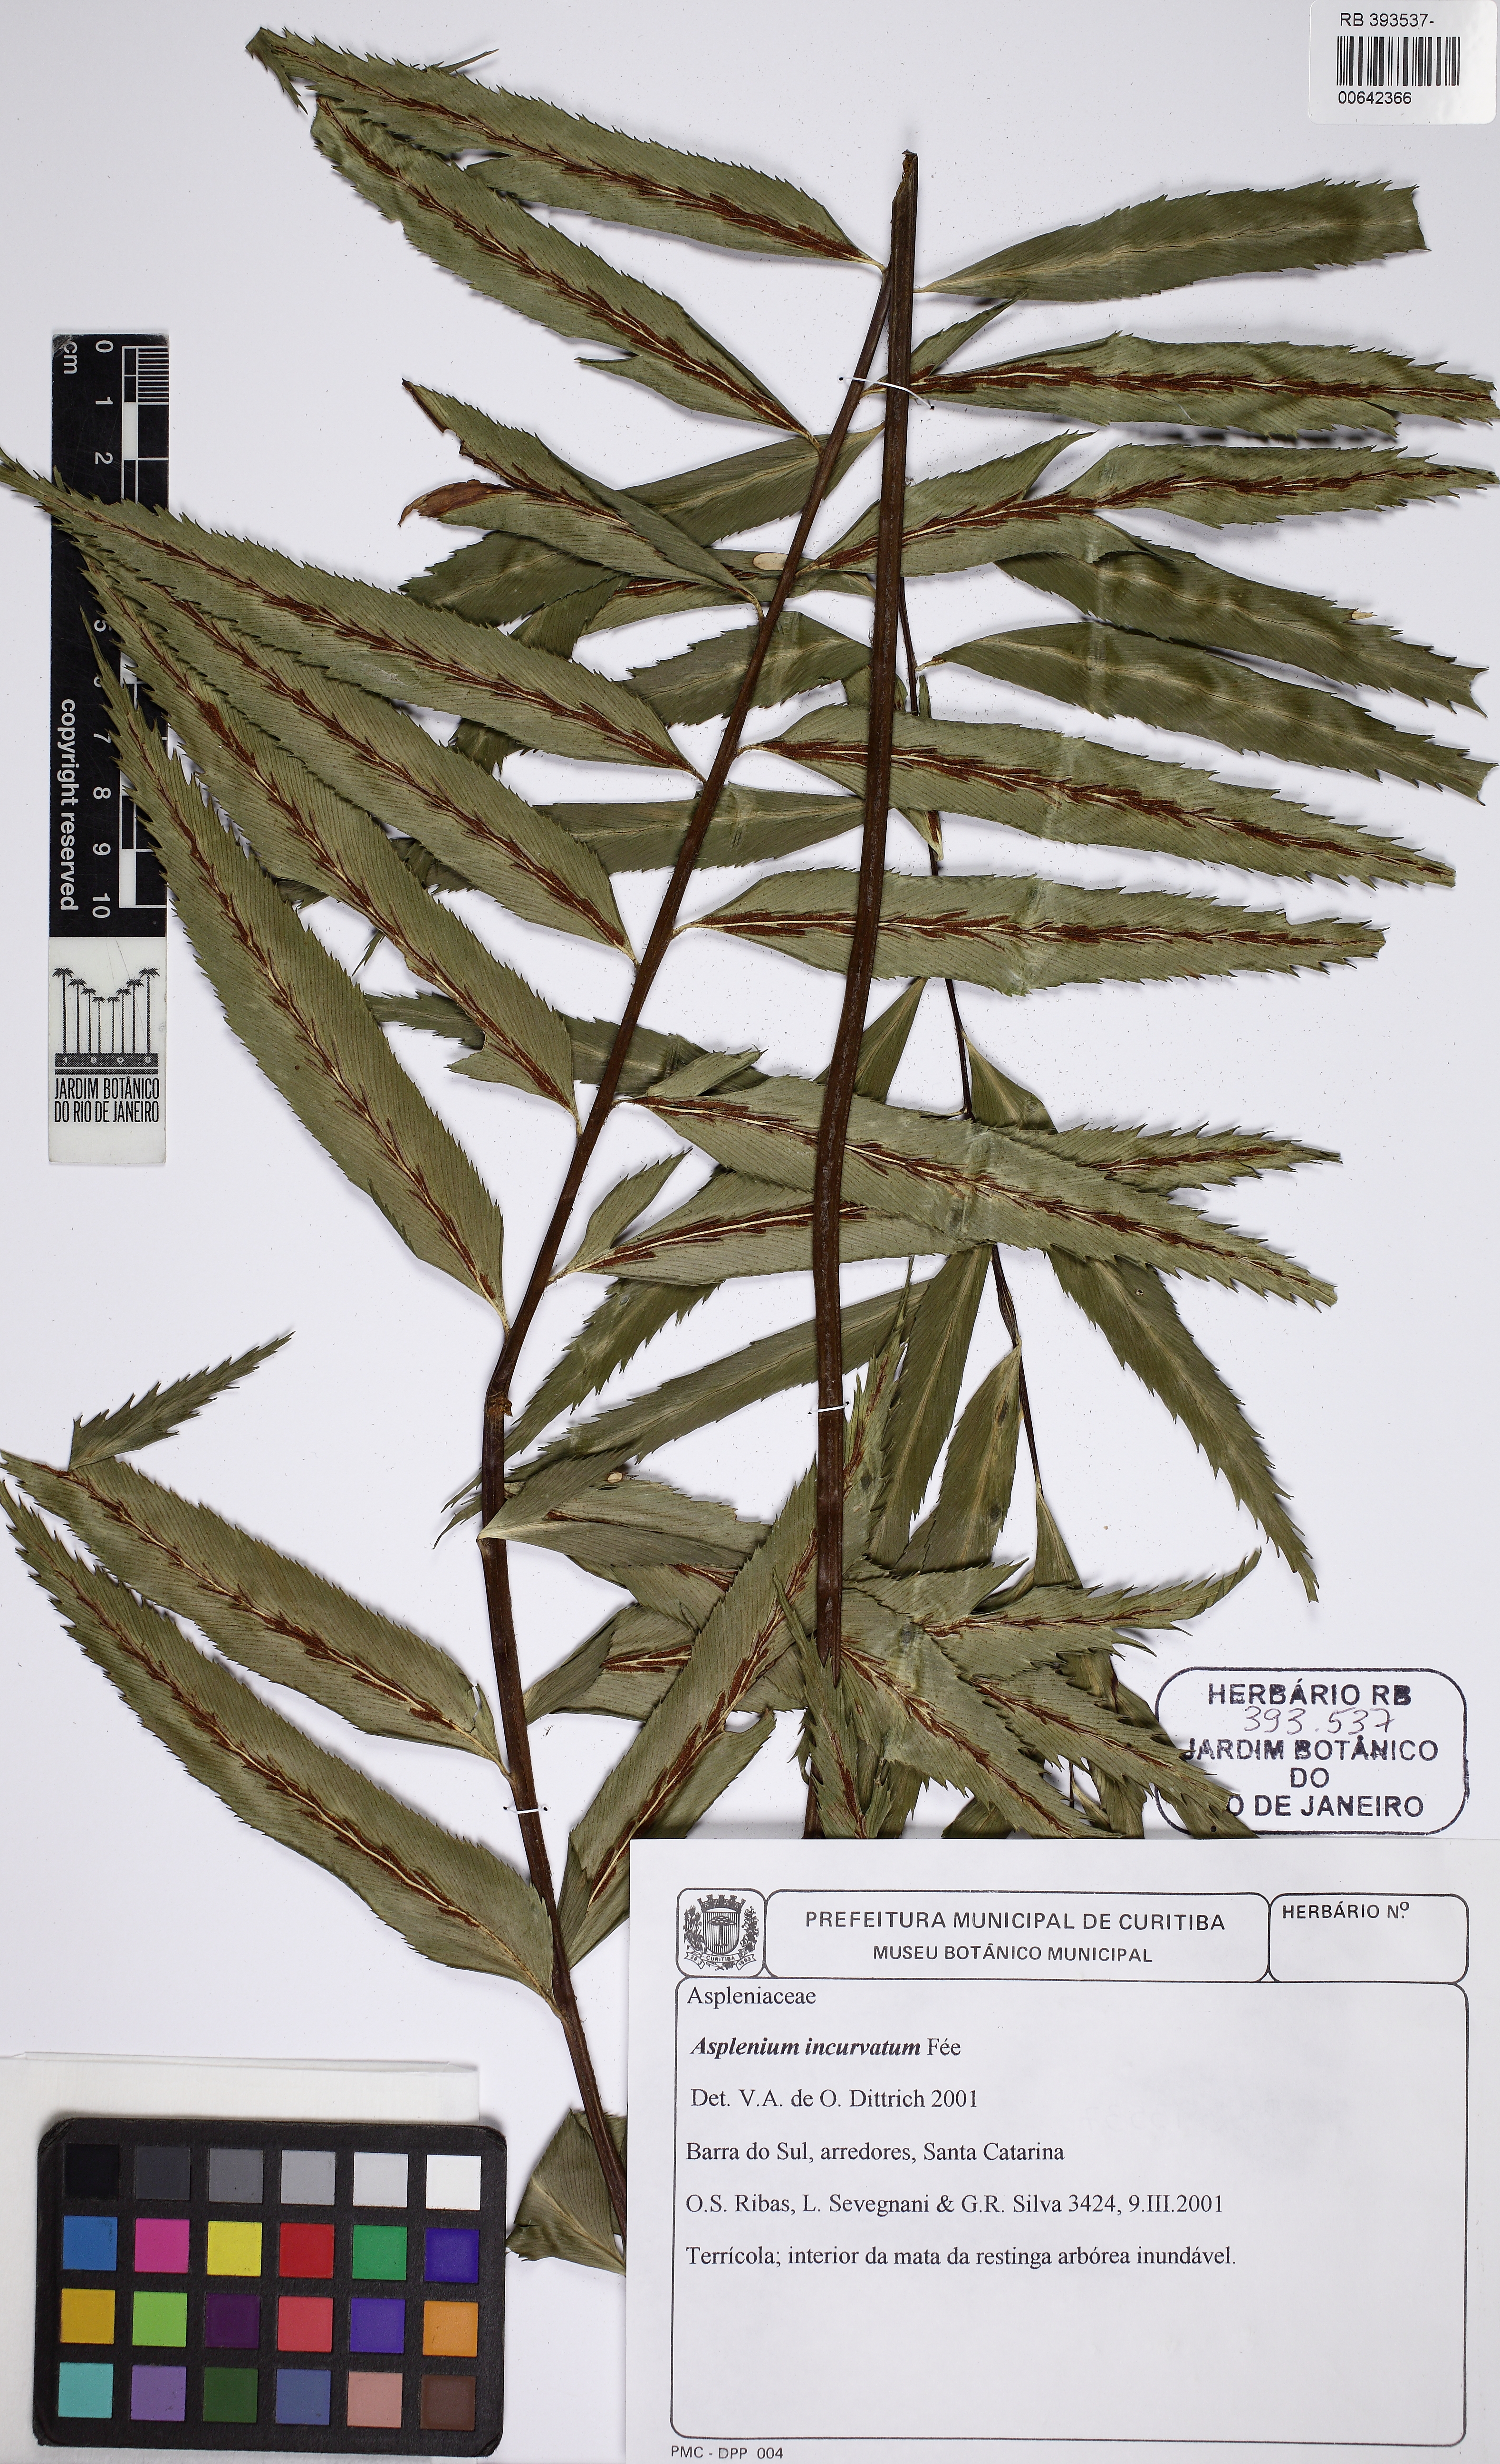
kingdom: Plantae
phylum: Tracheophyta
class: Polypodiopsida
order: Polypodiales
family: Aspleniaceae
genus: Asplenium
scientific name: Asplenium serra
